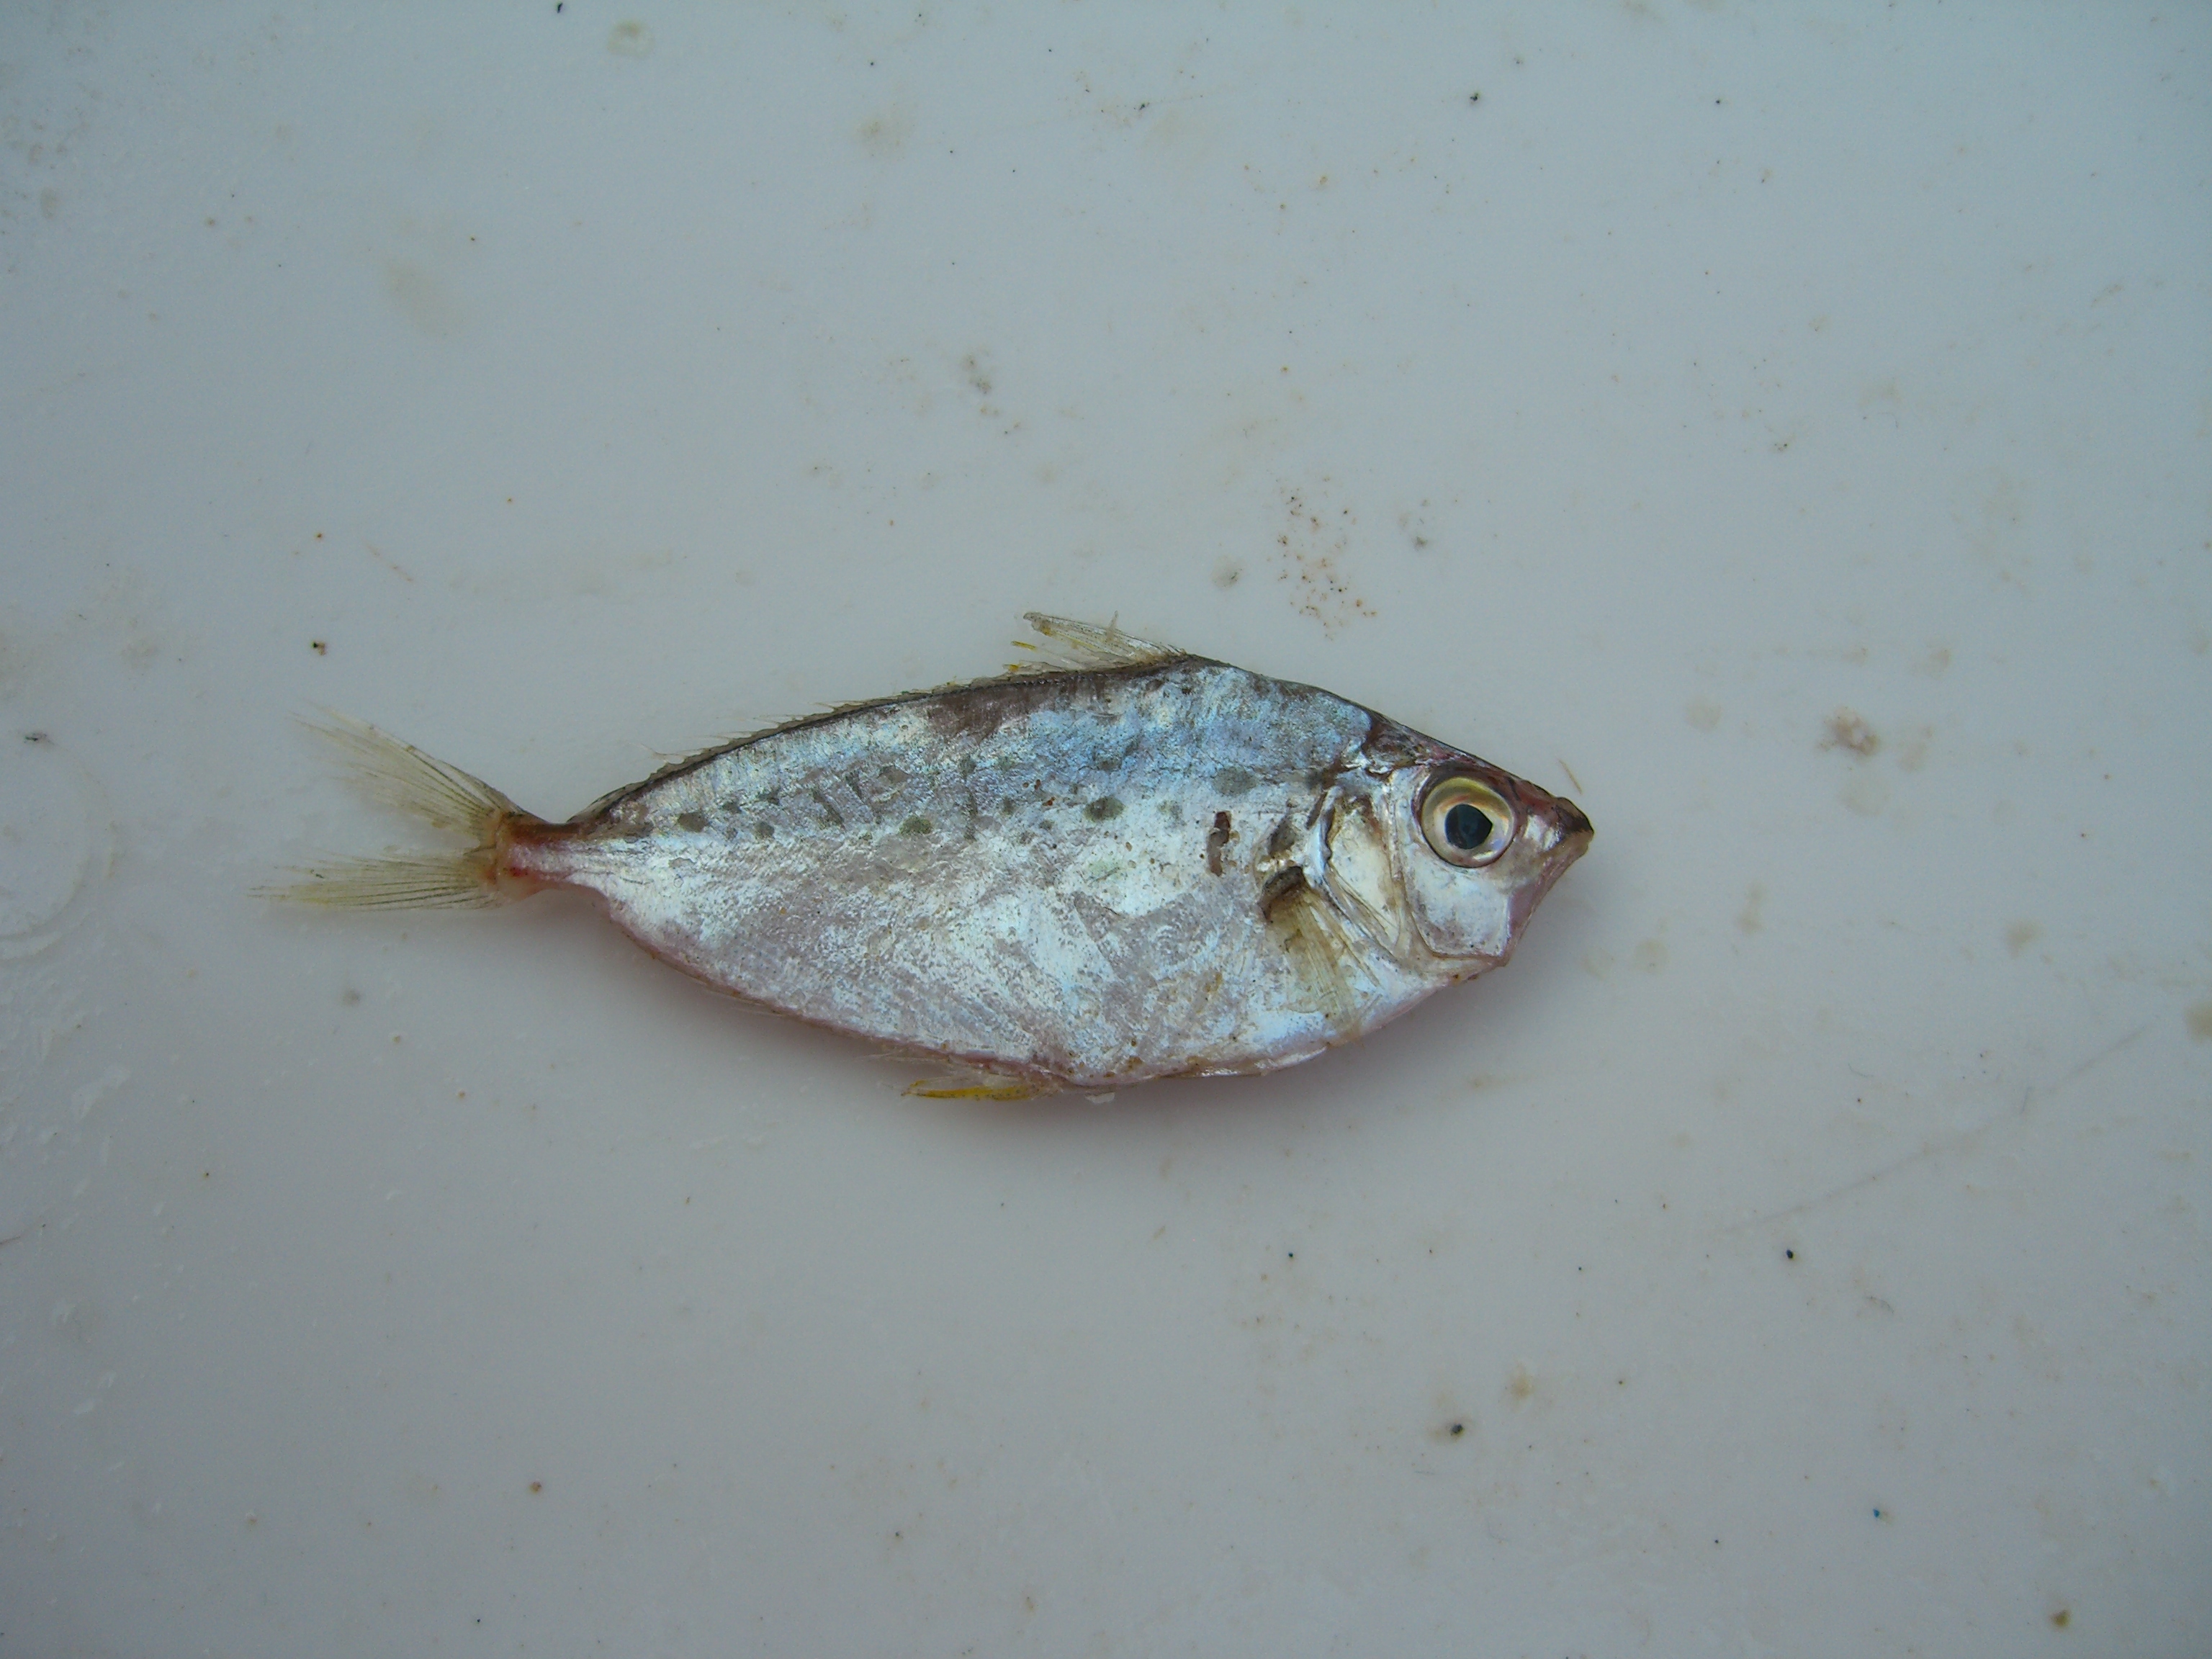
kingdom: Animalia
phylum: Chordata
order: Perciformes
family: Leiognathidae
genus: Equulites
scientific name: Equulites klunzingeri
